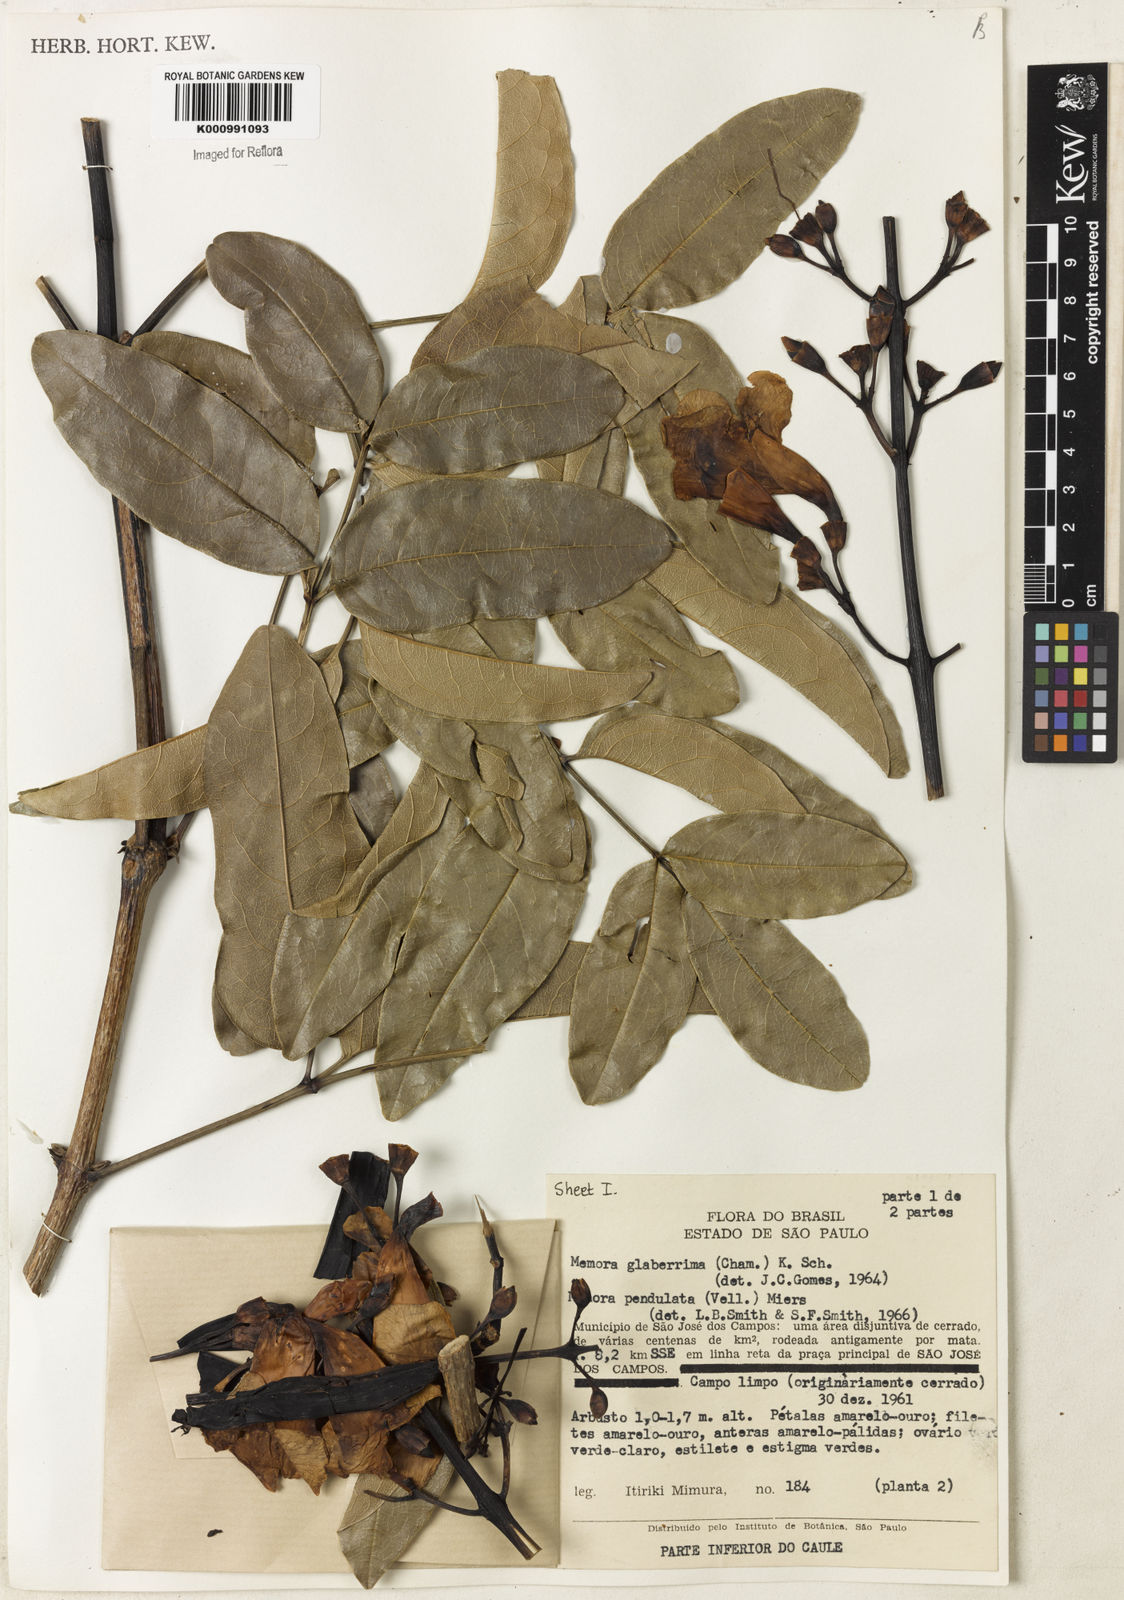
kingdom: Plantae
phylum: Tracheophyta
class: Magnoliopsida
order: Lamiales
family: Bignoniaceae
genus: Adenocalymma
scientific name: Adenocalymma
